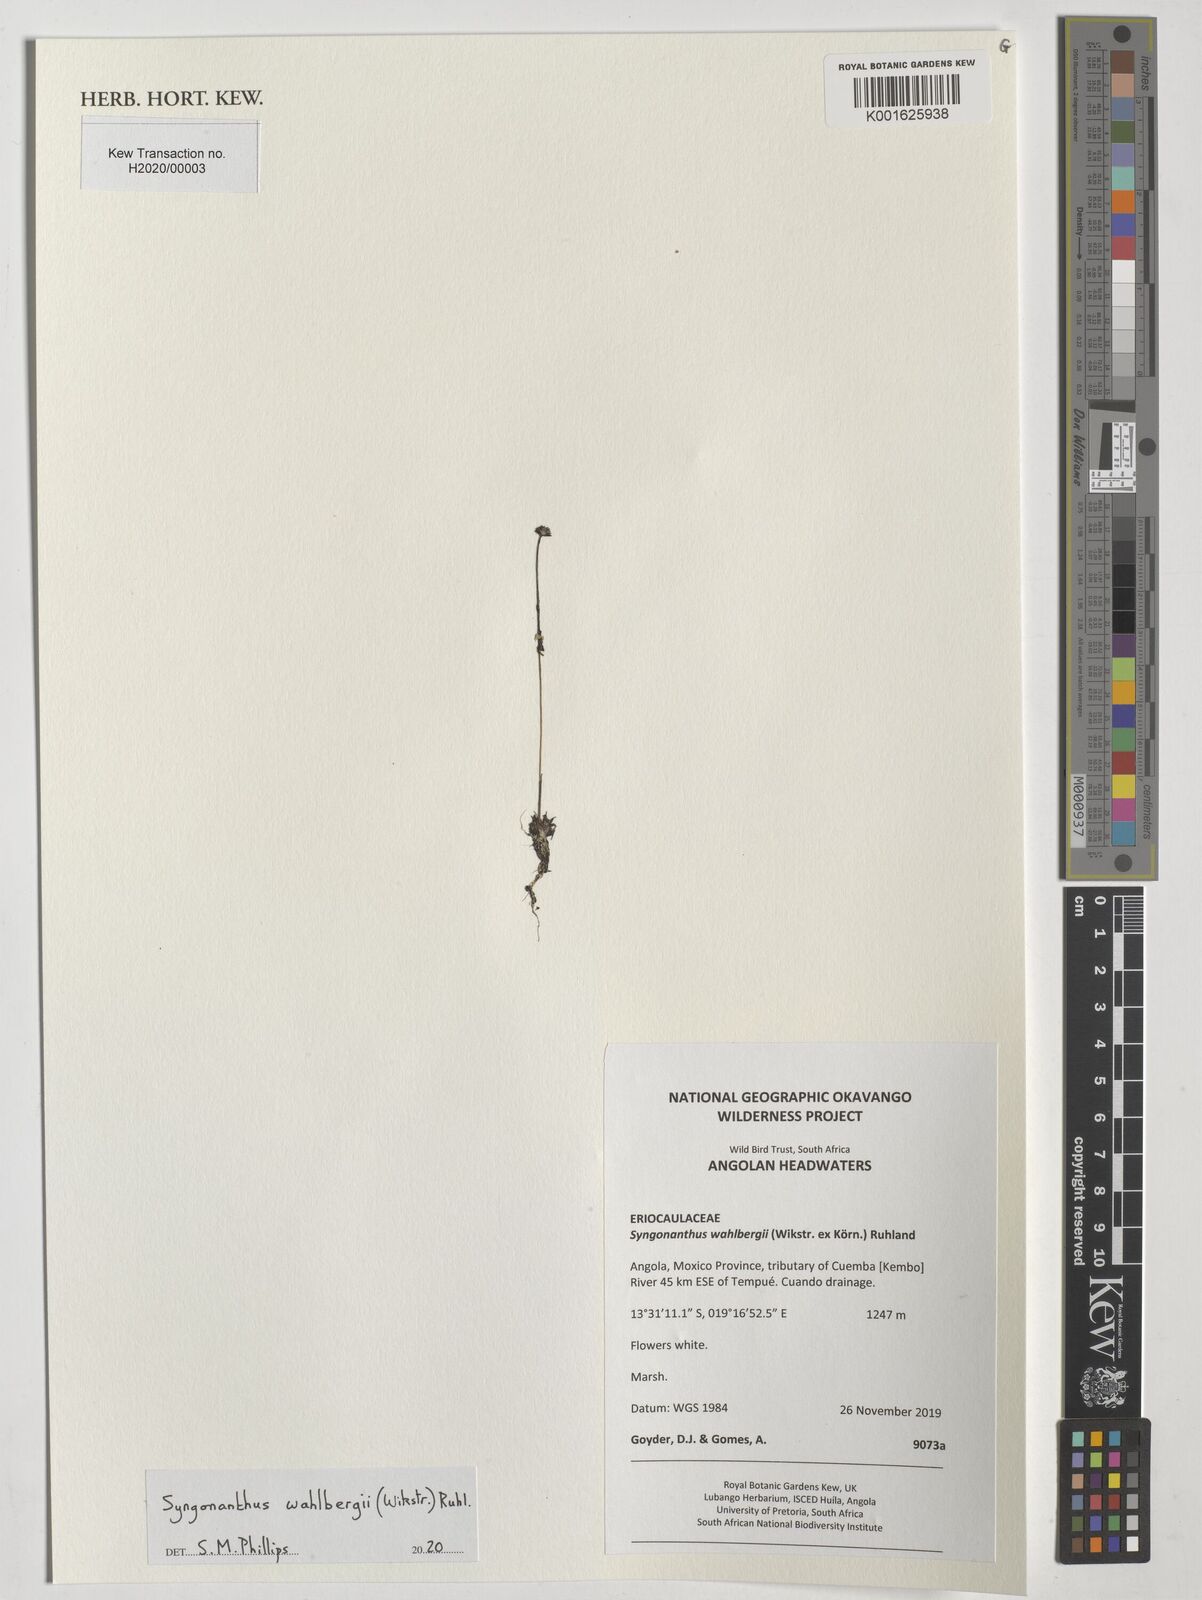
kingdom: Plantae
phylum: Tracheophyta
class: Liliopsida
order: Poales
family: Eriocaulaceae
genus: Syngonanthus
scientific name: Syngonanthus wahlbergii
